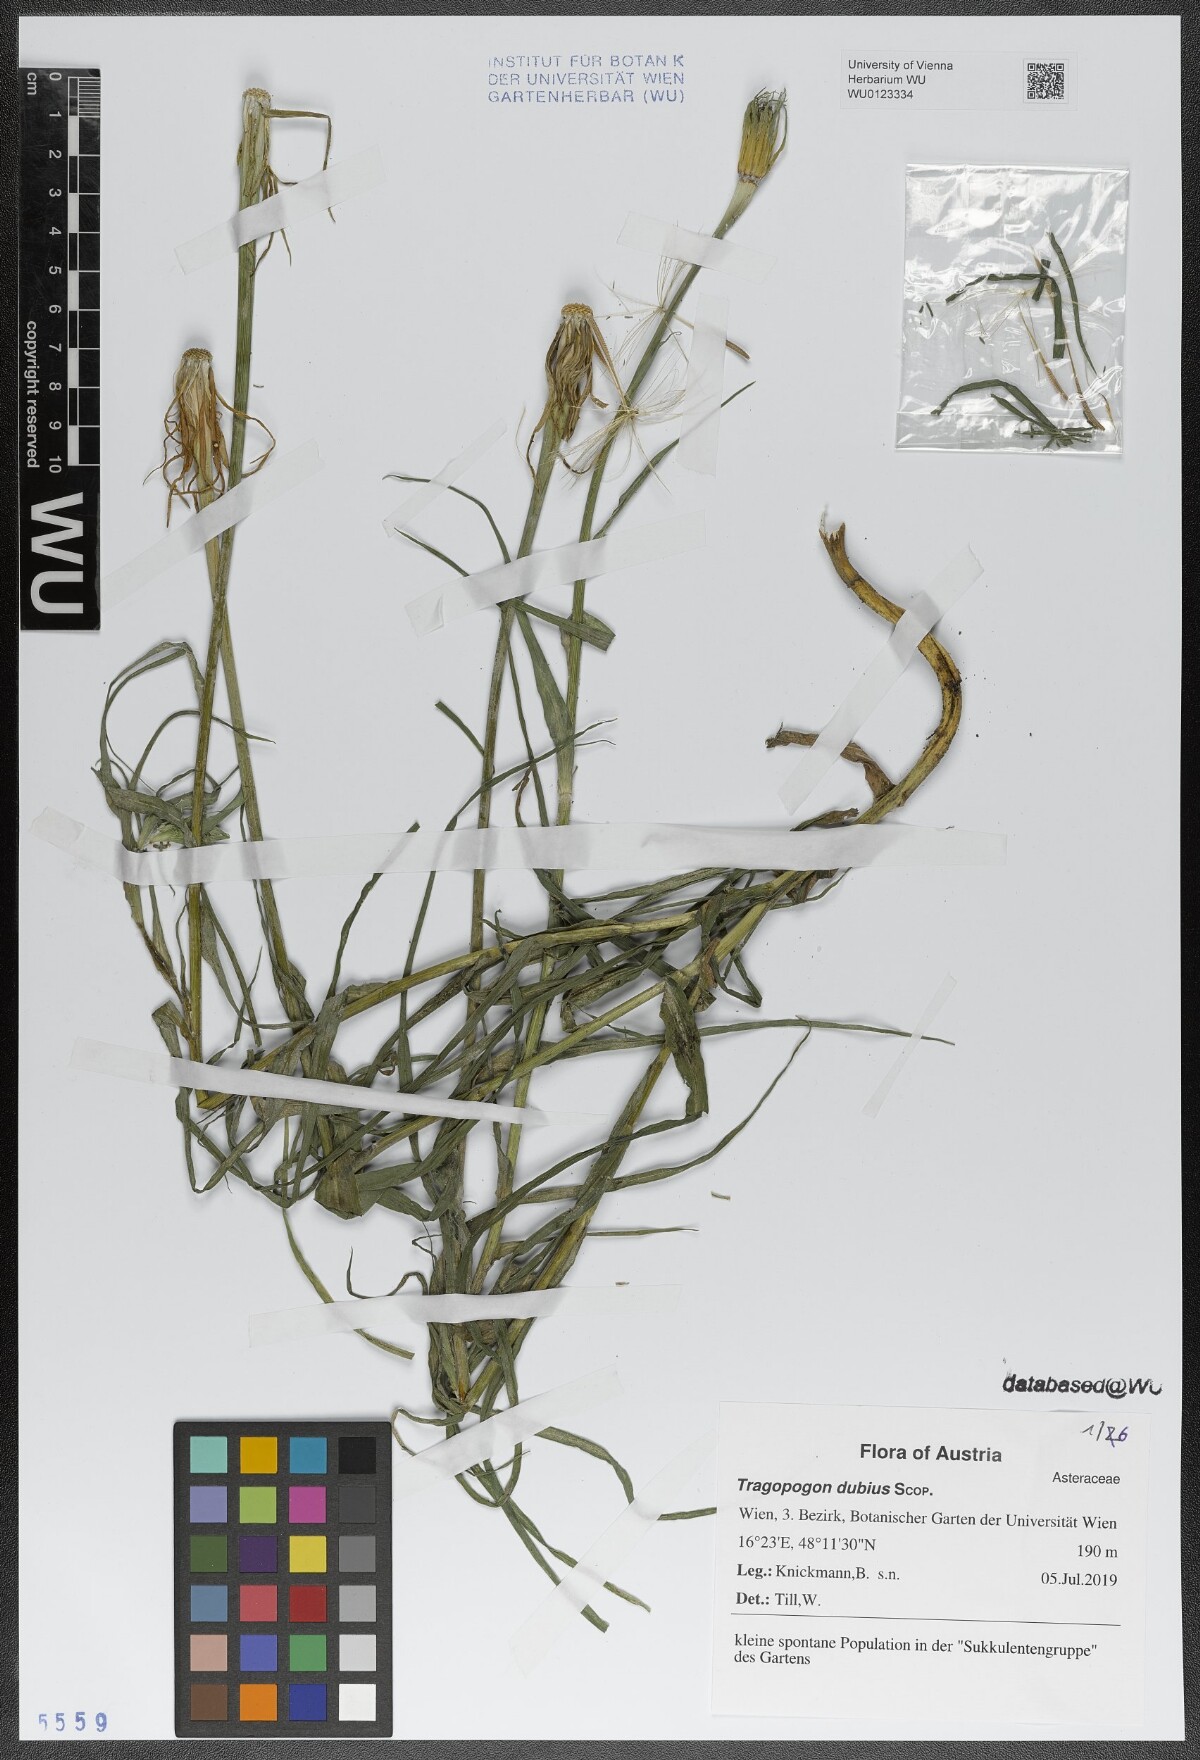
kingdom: Plantae
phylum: Tracheophyta
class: Magnoliopsida
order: Asterales
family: Asteraceae
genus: Tragopogon
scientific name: Tragopogon dubius
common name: Yellow salsify
